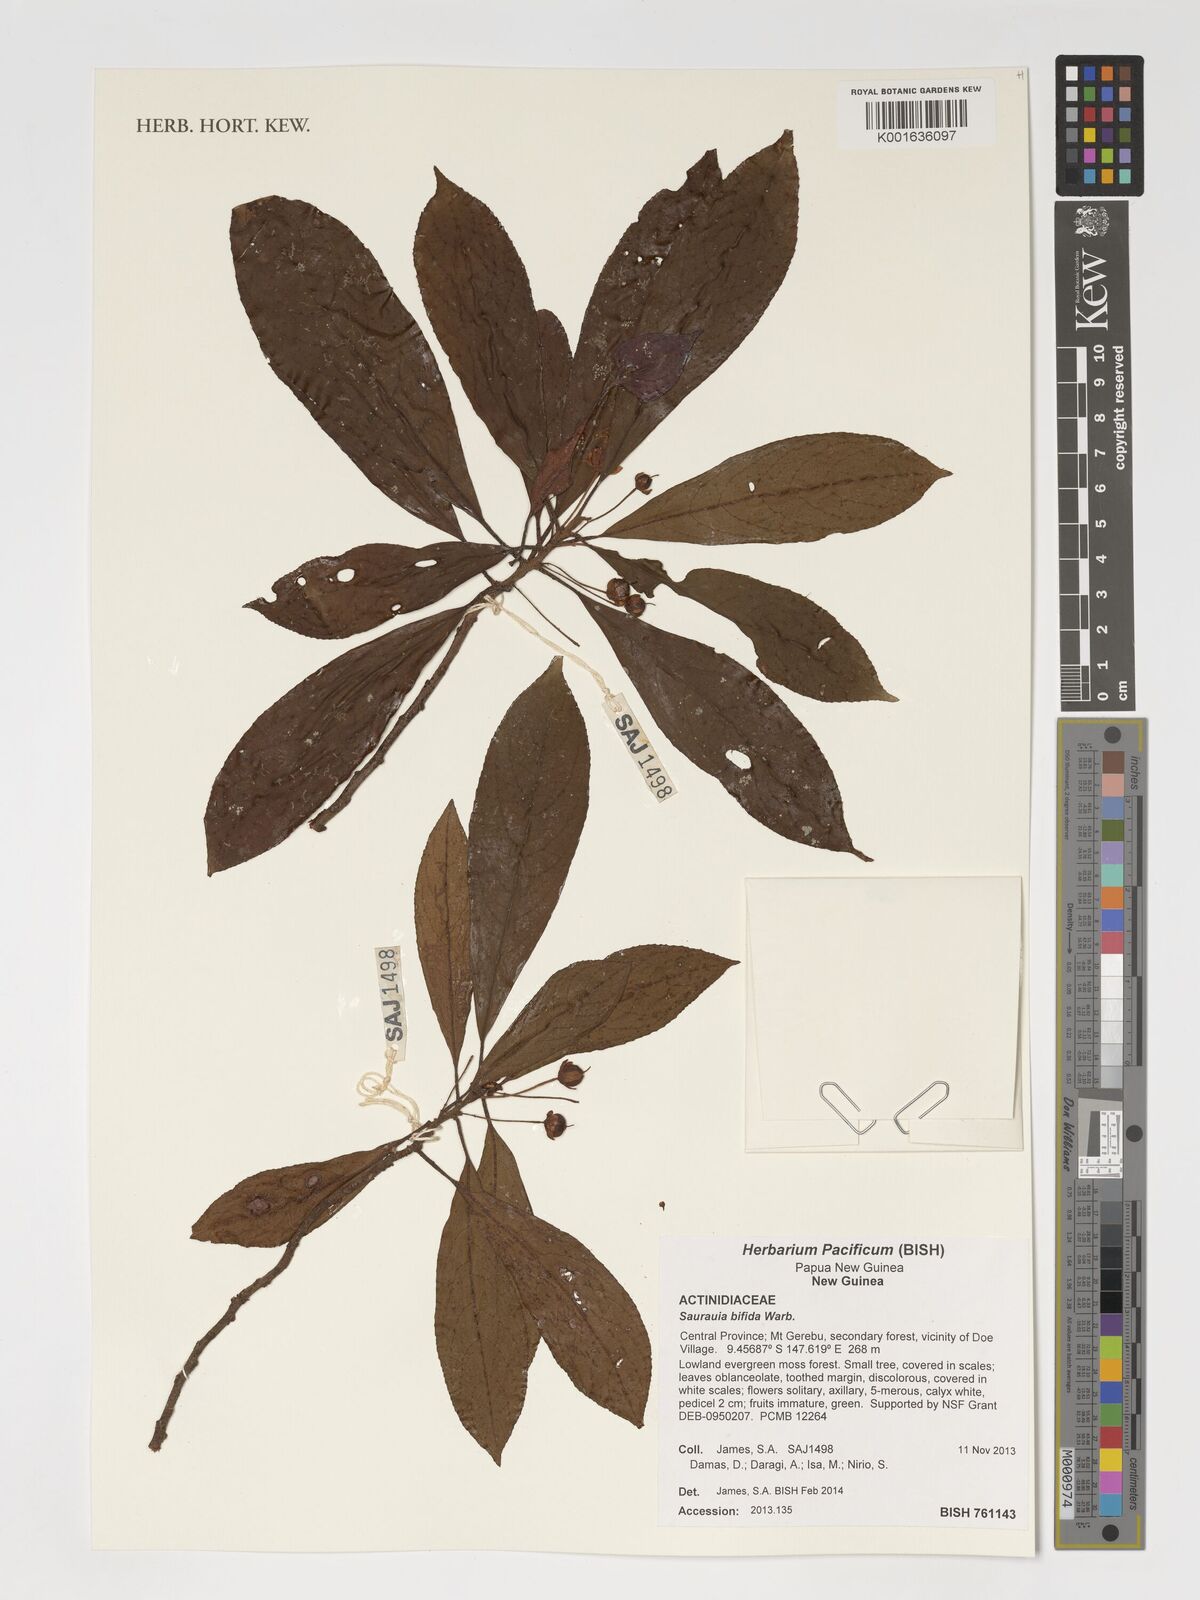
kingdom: Plantae
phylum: Tracheophyta
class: Magnoliopsida
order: Ericales
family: Actinidiaceae
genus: Saurauia
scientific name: Saurauia bifida
